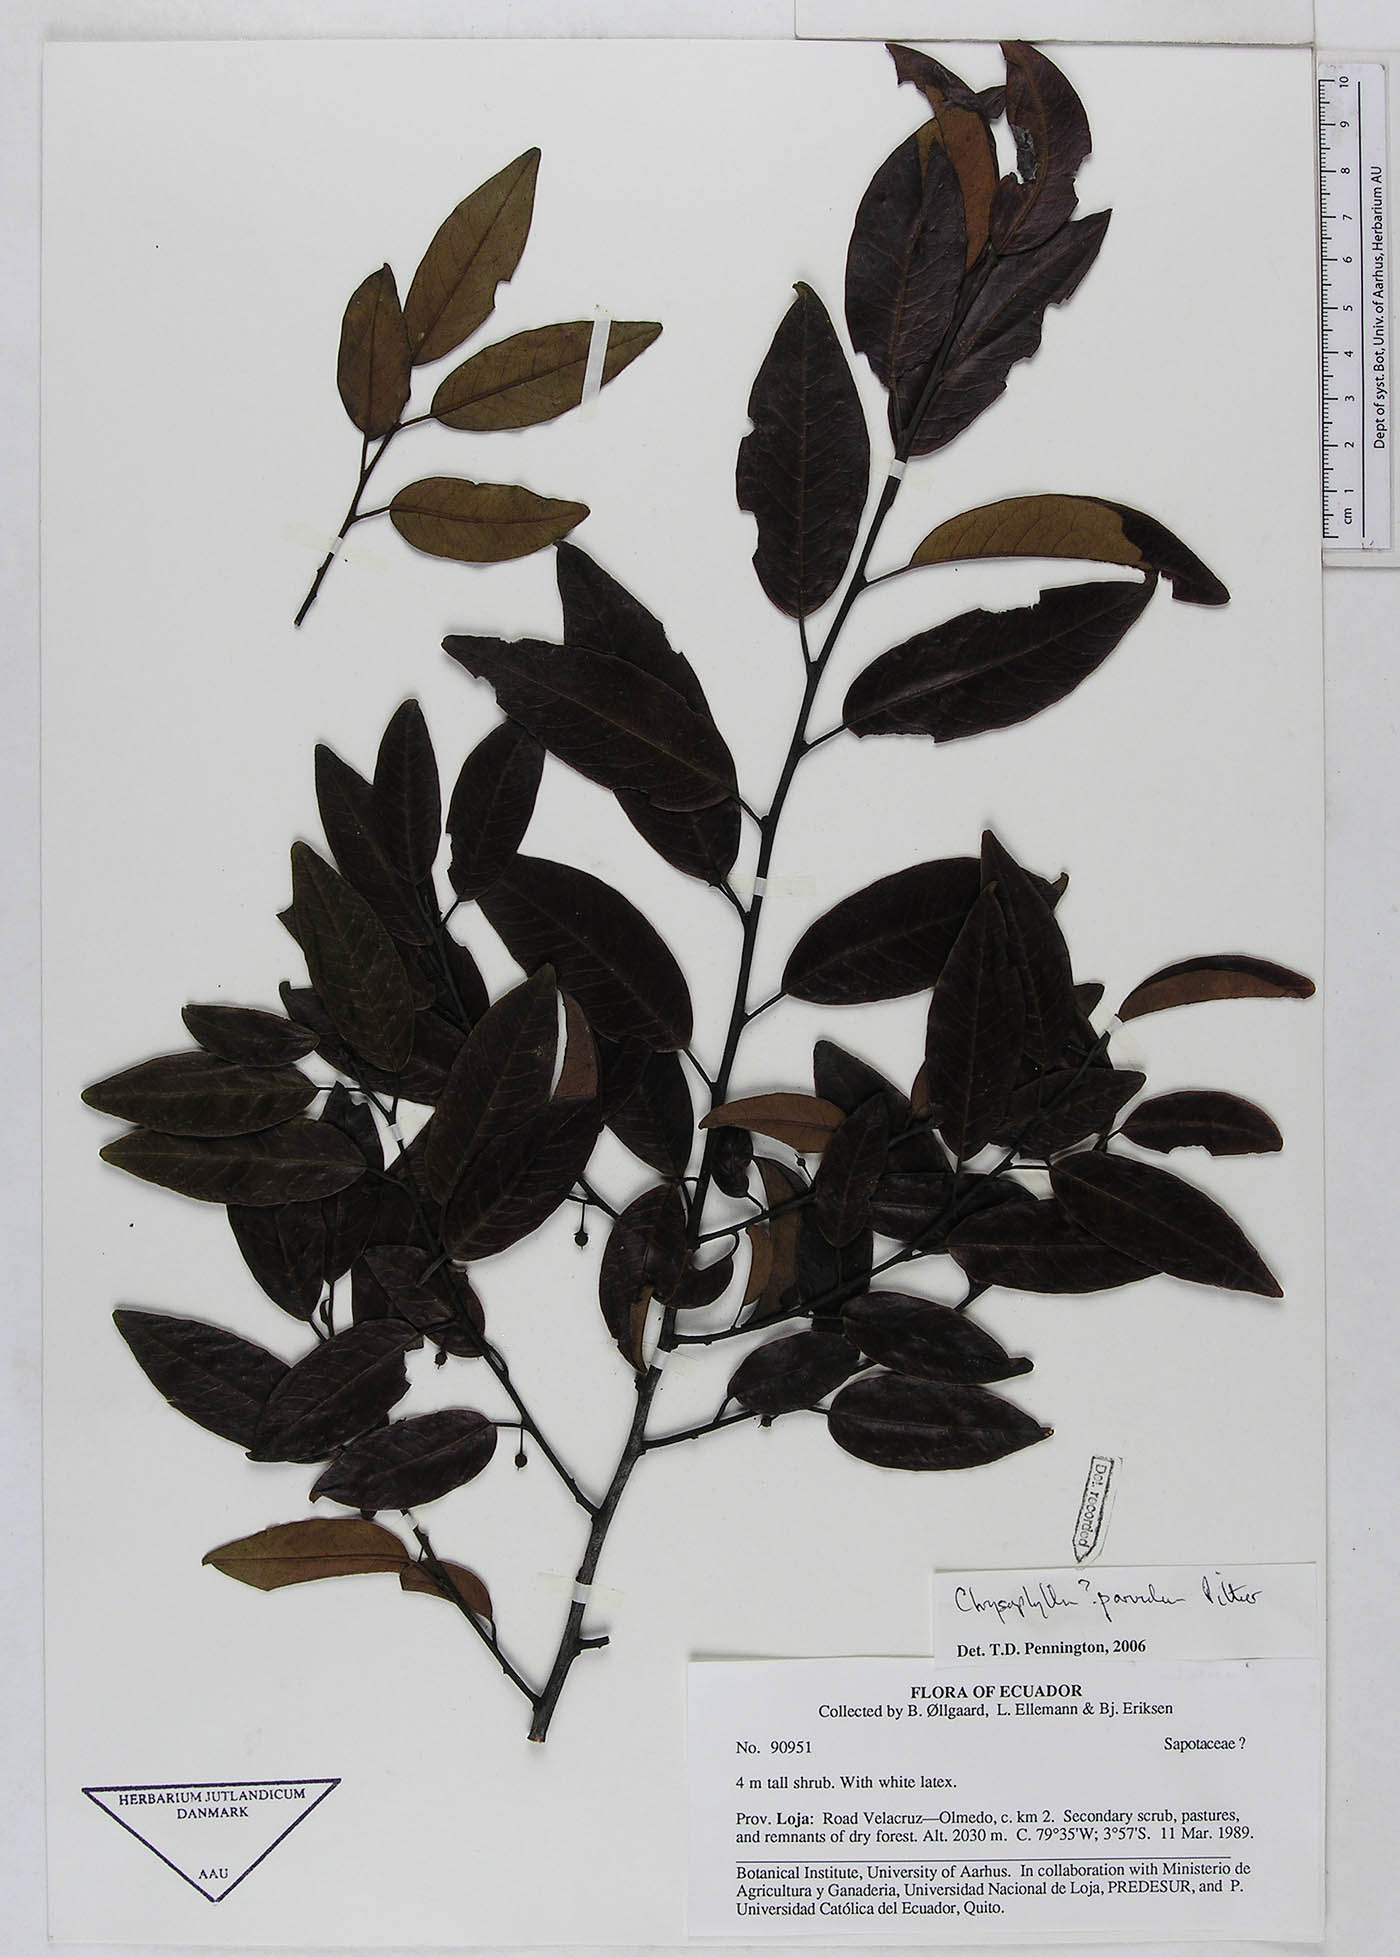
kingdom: Plantae
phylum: Tracheophyta
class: Magnoliopsida
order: Ericales
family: Sapotaceae
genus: Chrysophyllum
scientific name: Chrysophyllum parvulum
